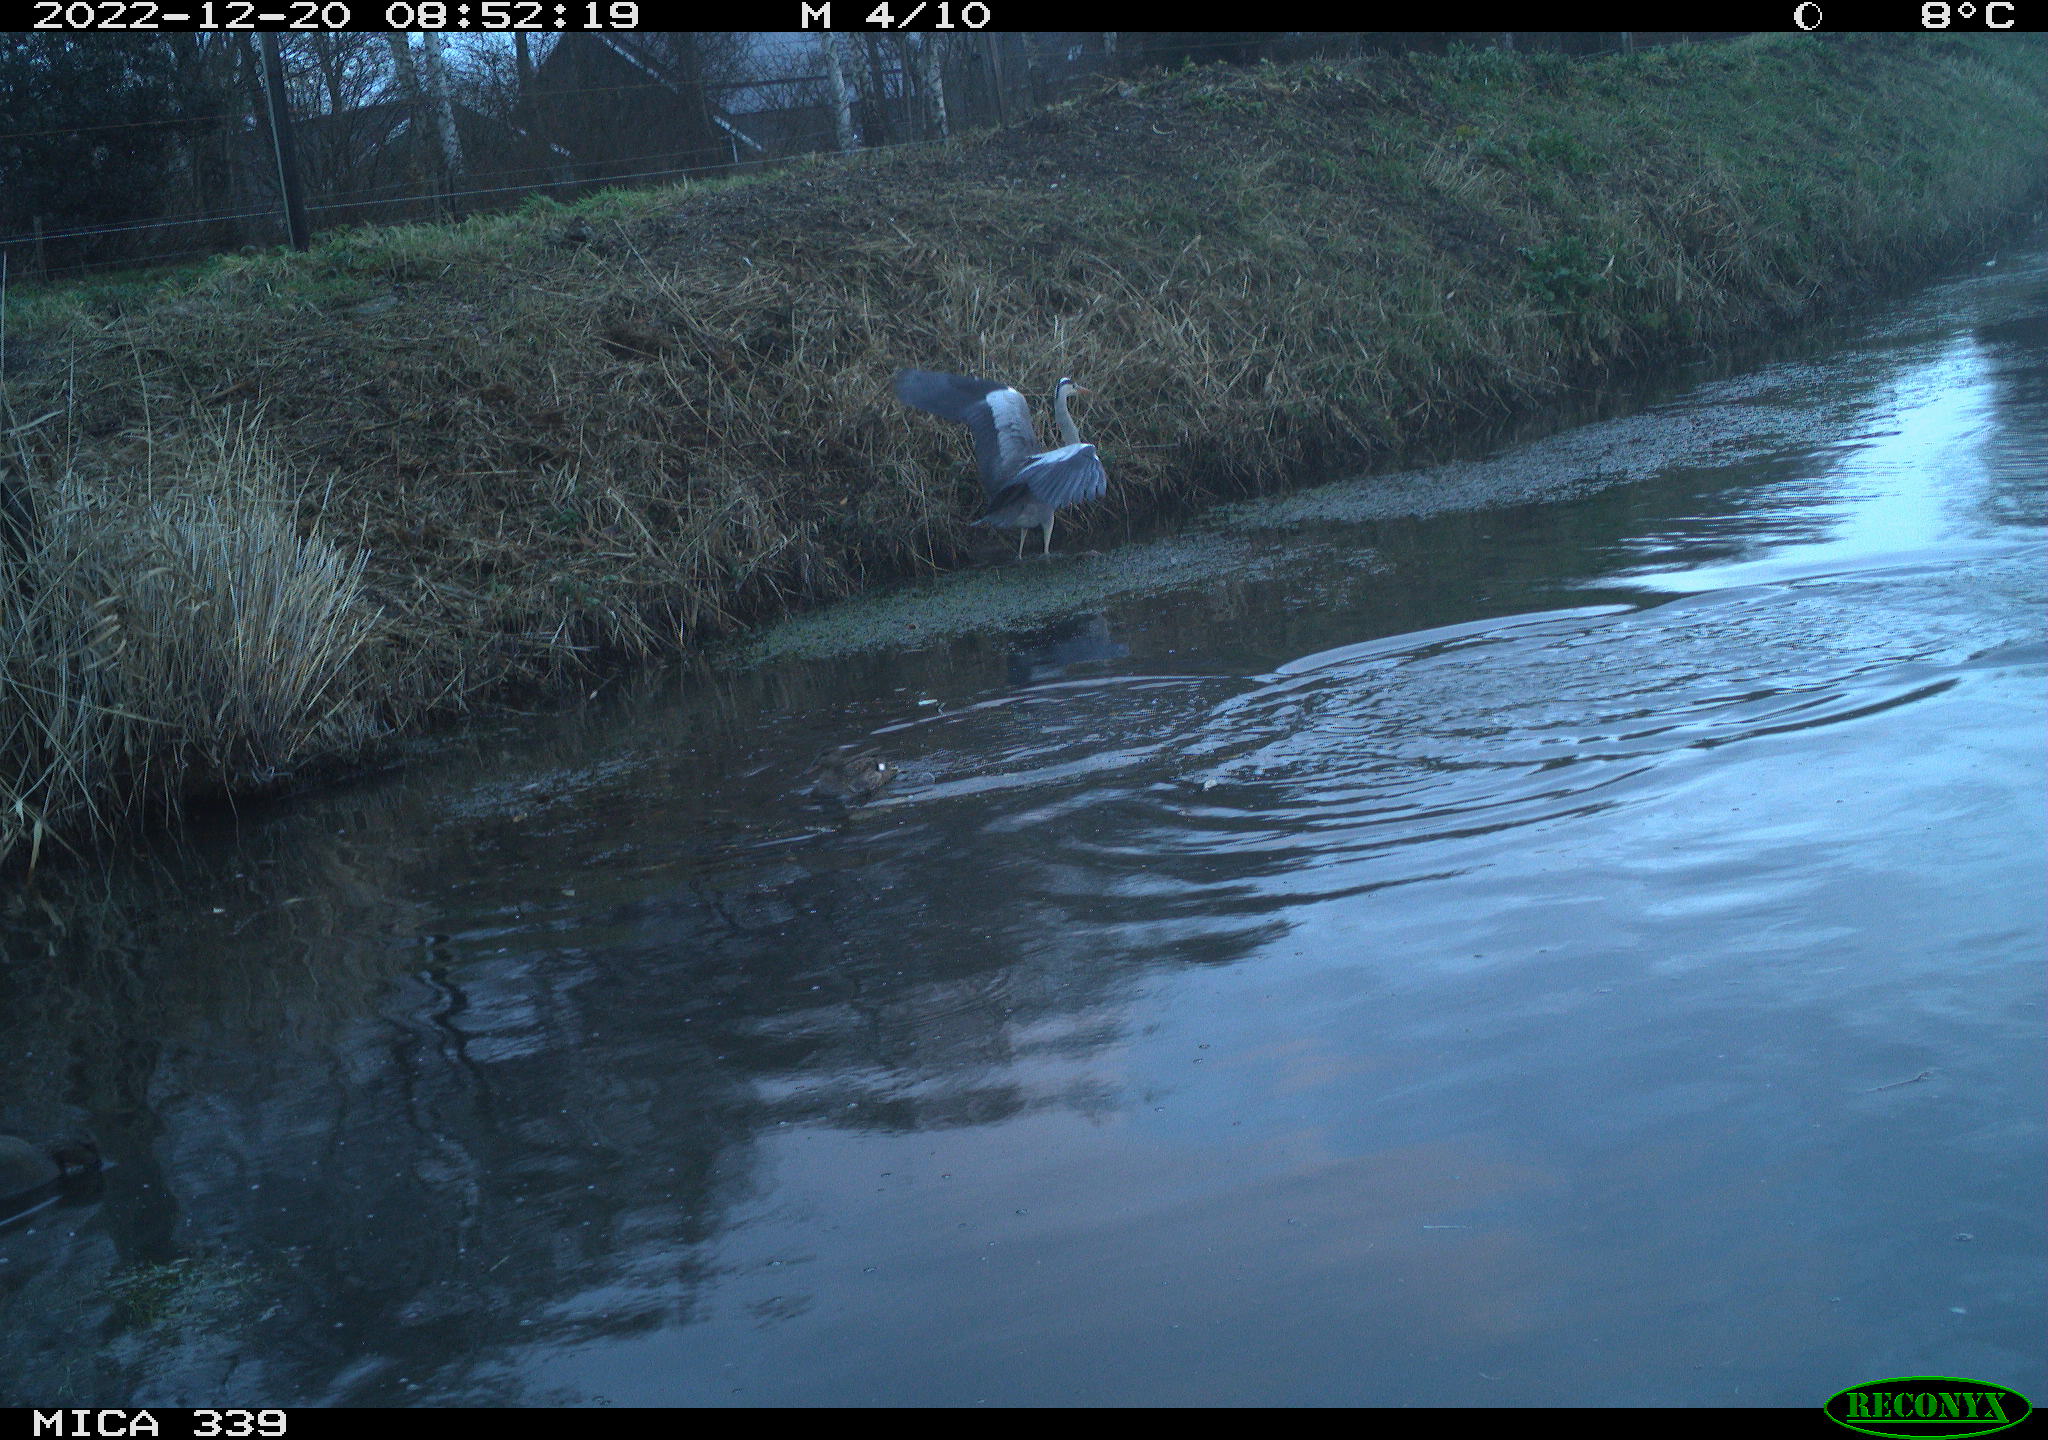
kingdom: Animalia
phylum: Chordata
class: Aves
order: Anseriformes
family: Anatidae
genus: Anas
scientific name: Anas
